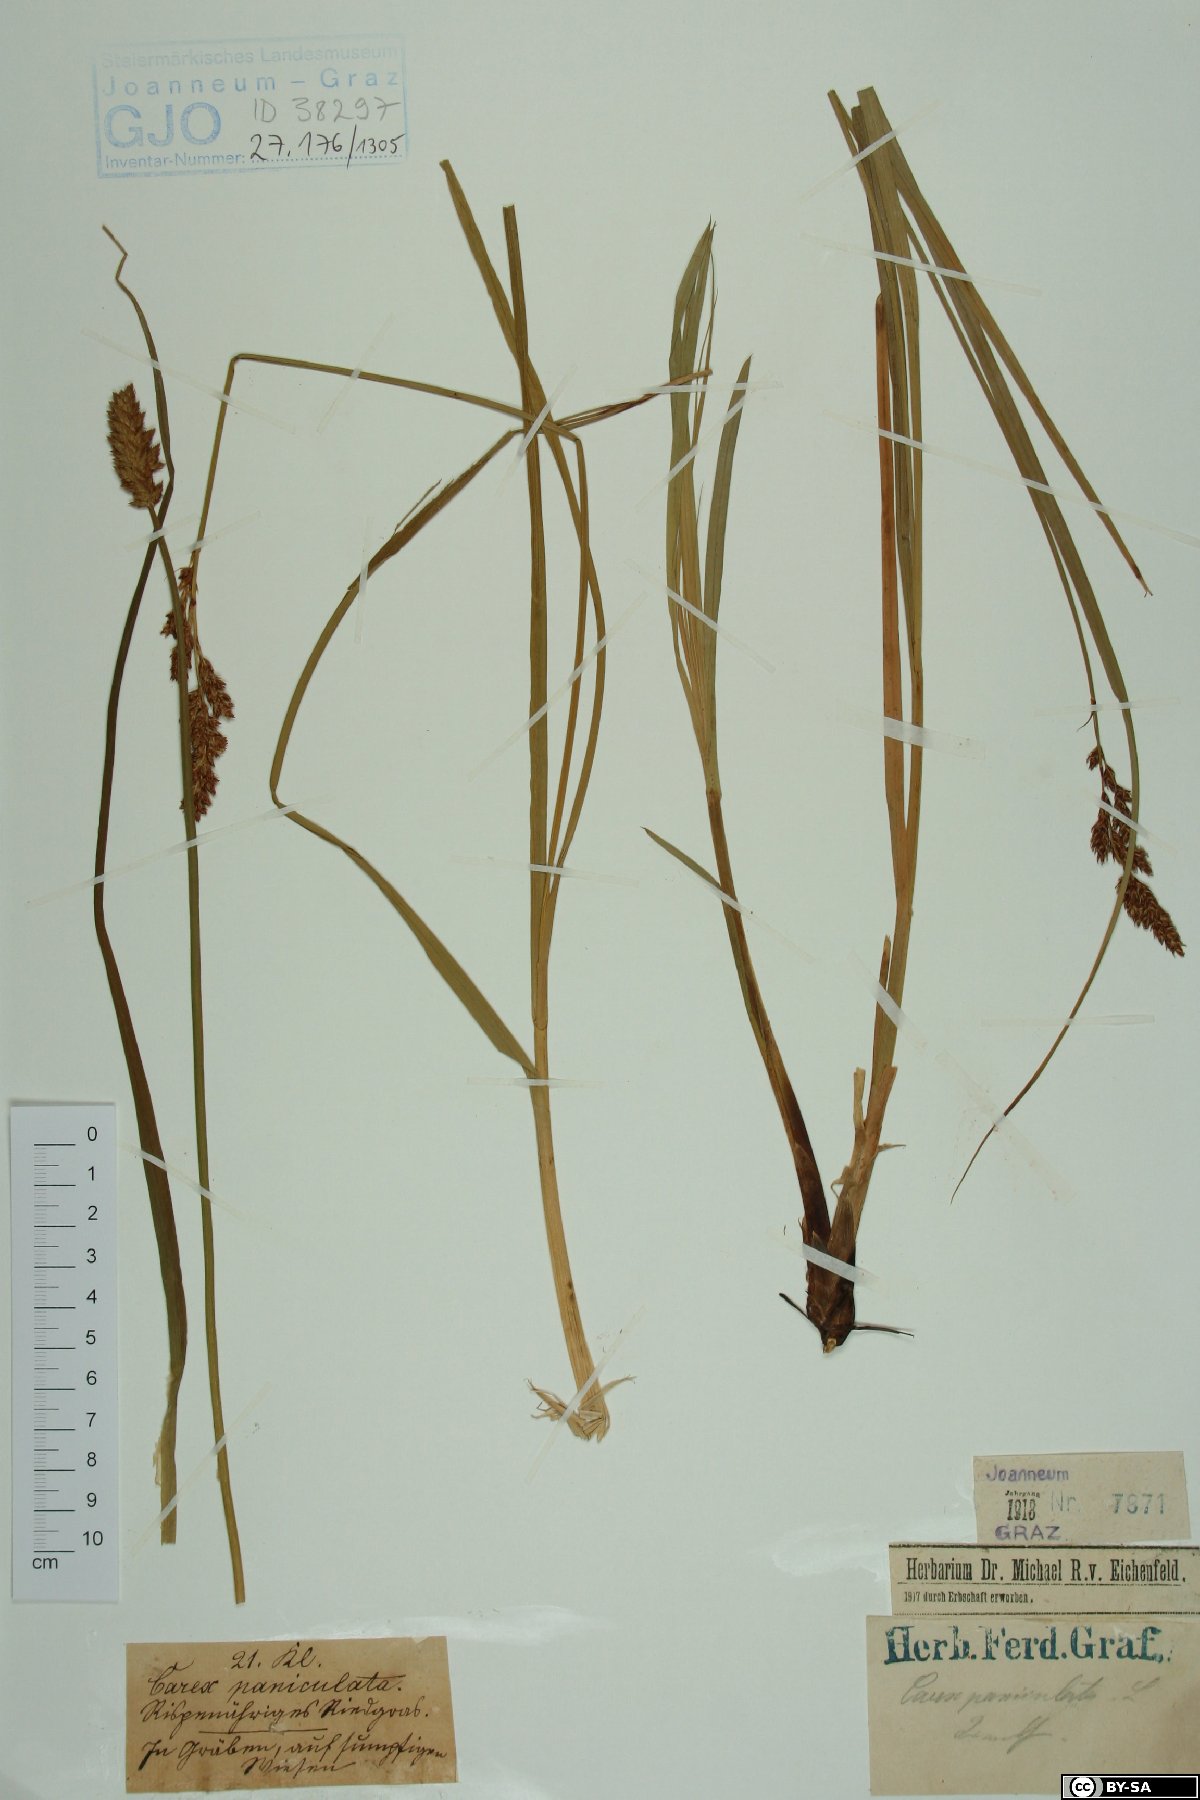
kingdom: Plantae
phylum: Tracheophyta
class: Liliopsida
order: Poales
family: Cyperaceae
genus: Carex
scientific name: Carex paniculata
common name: Greater tussock-sedge
